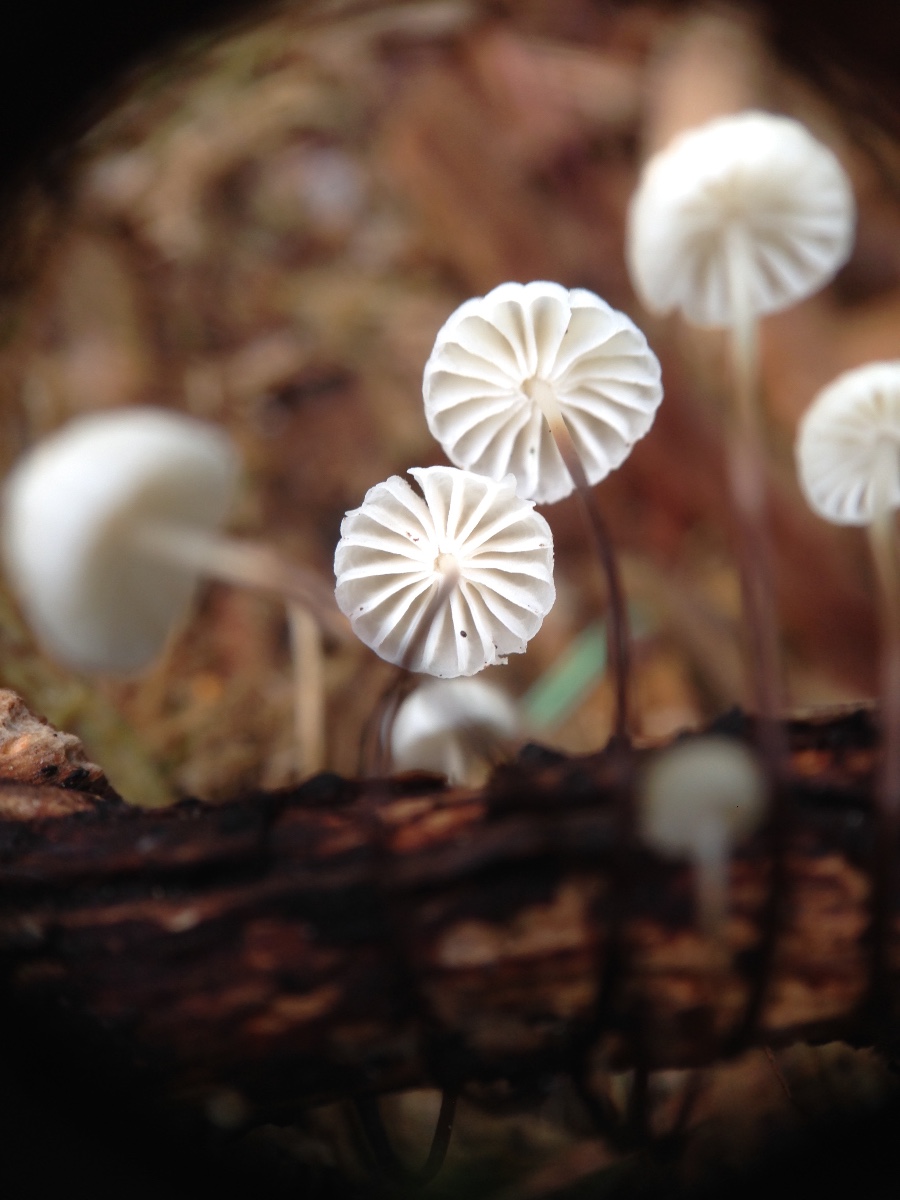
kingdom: Fungi
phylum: Basidiomycota
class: Agaricomycetes
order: Agaricales
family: Marasmiaceae
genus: Marasmius
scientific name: Marasmius rotula
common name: hjul-bruskhat
